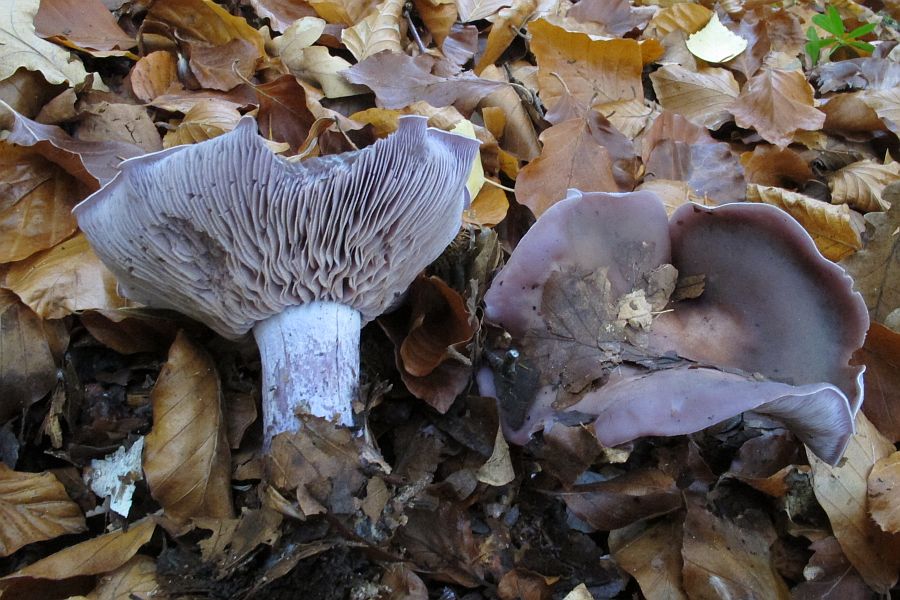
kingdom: Fungi
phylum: Basidiomycota
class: Agaricomycetes
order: Agaricales
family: Tricholomataceae
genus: Lepista
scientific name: Lepista nuda
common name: violet hekseringshat
